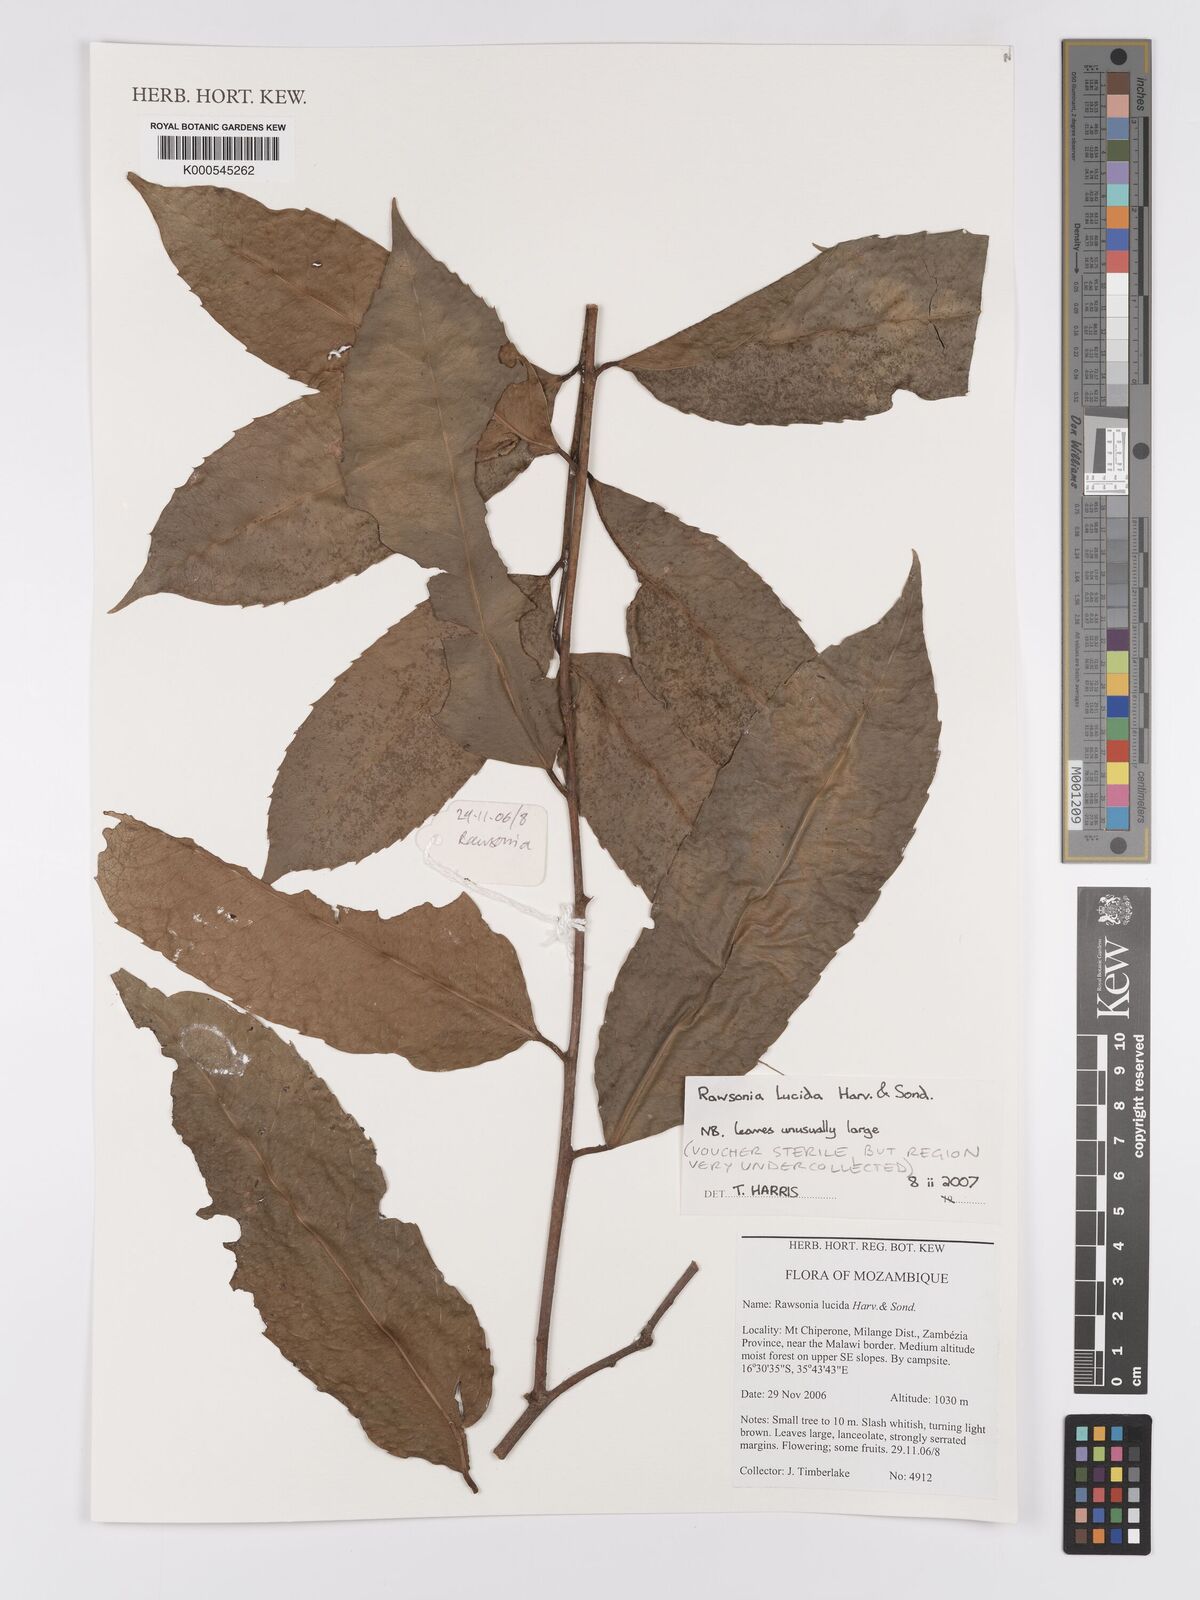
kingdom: Plantae
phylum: Tracheophyta
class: Magnoliopsida
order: Malpighiales
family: Achariaceae
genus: Rawsonia
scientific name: Rawsonia lucida
